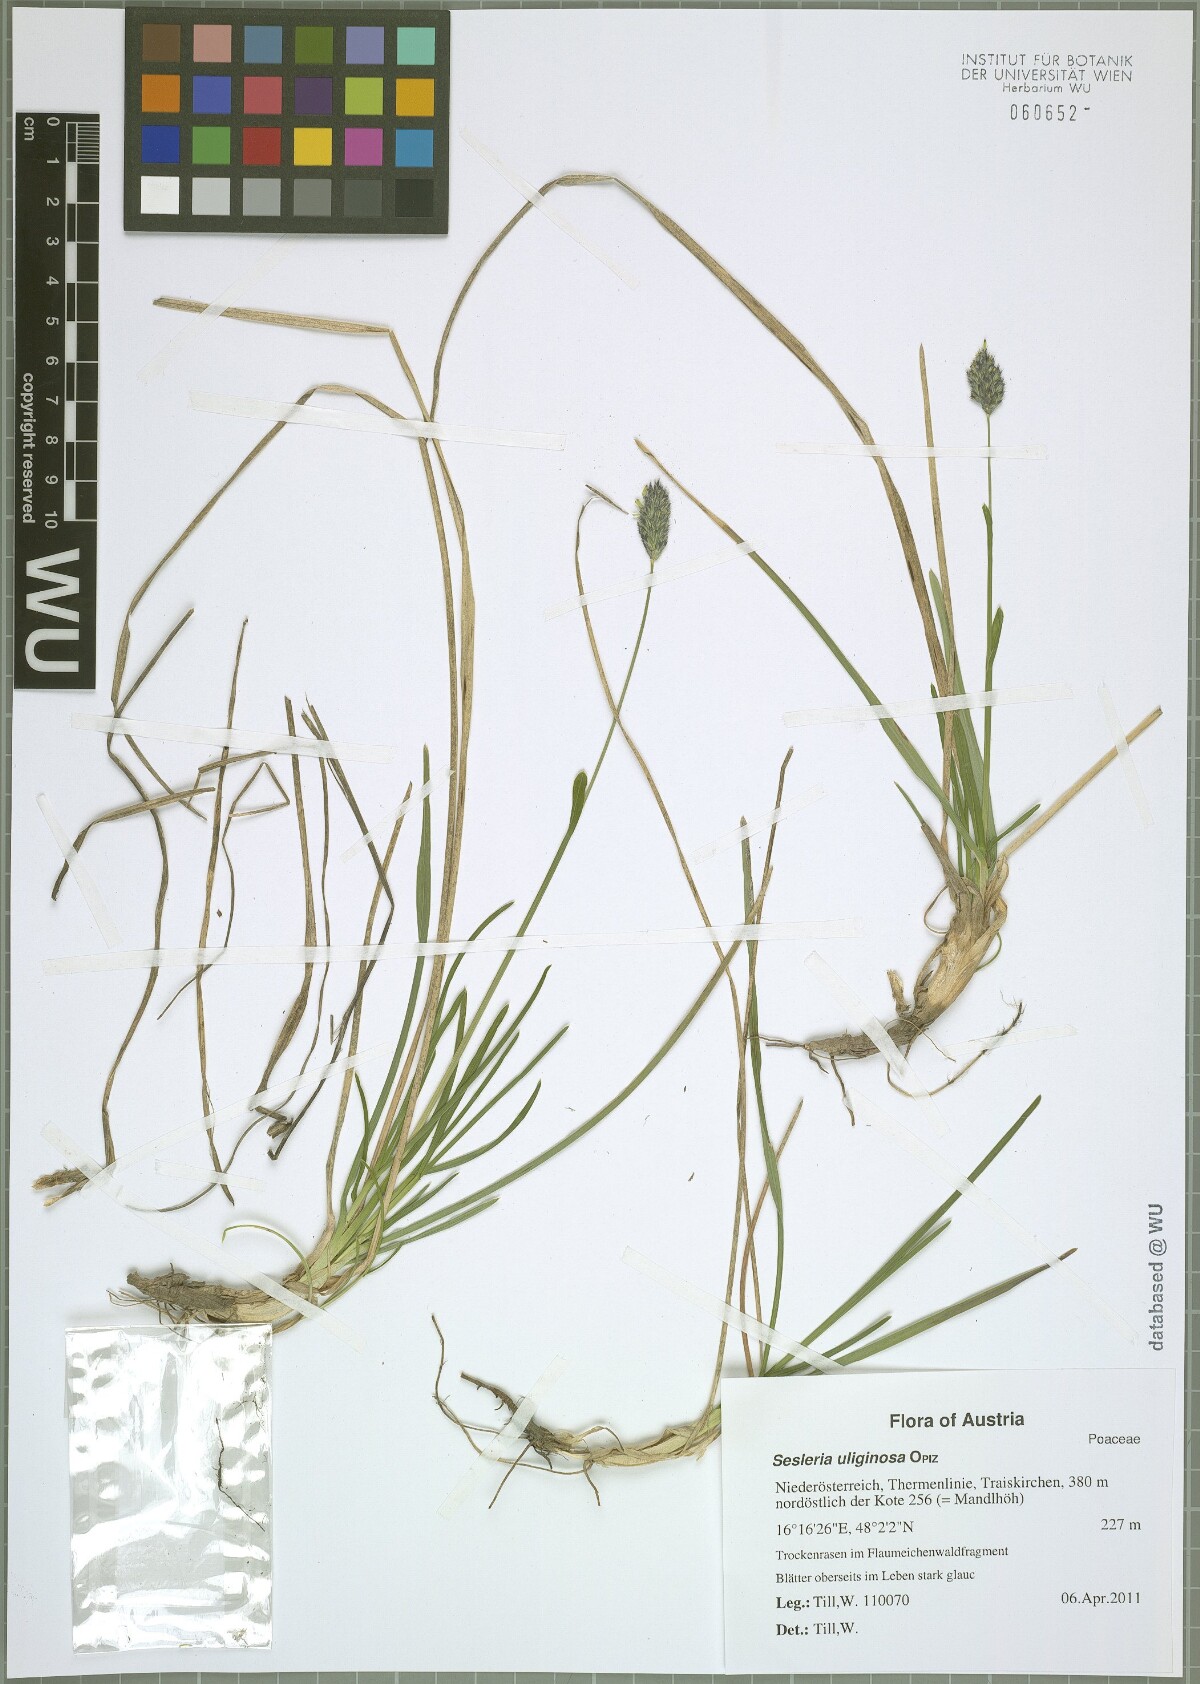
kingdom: Plantae
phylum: Tracheophyta
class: Liliopsida
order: Poales
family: Poaceae
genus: Sesleria
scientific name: Sesleria uliginosa
